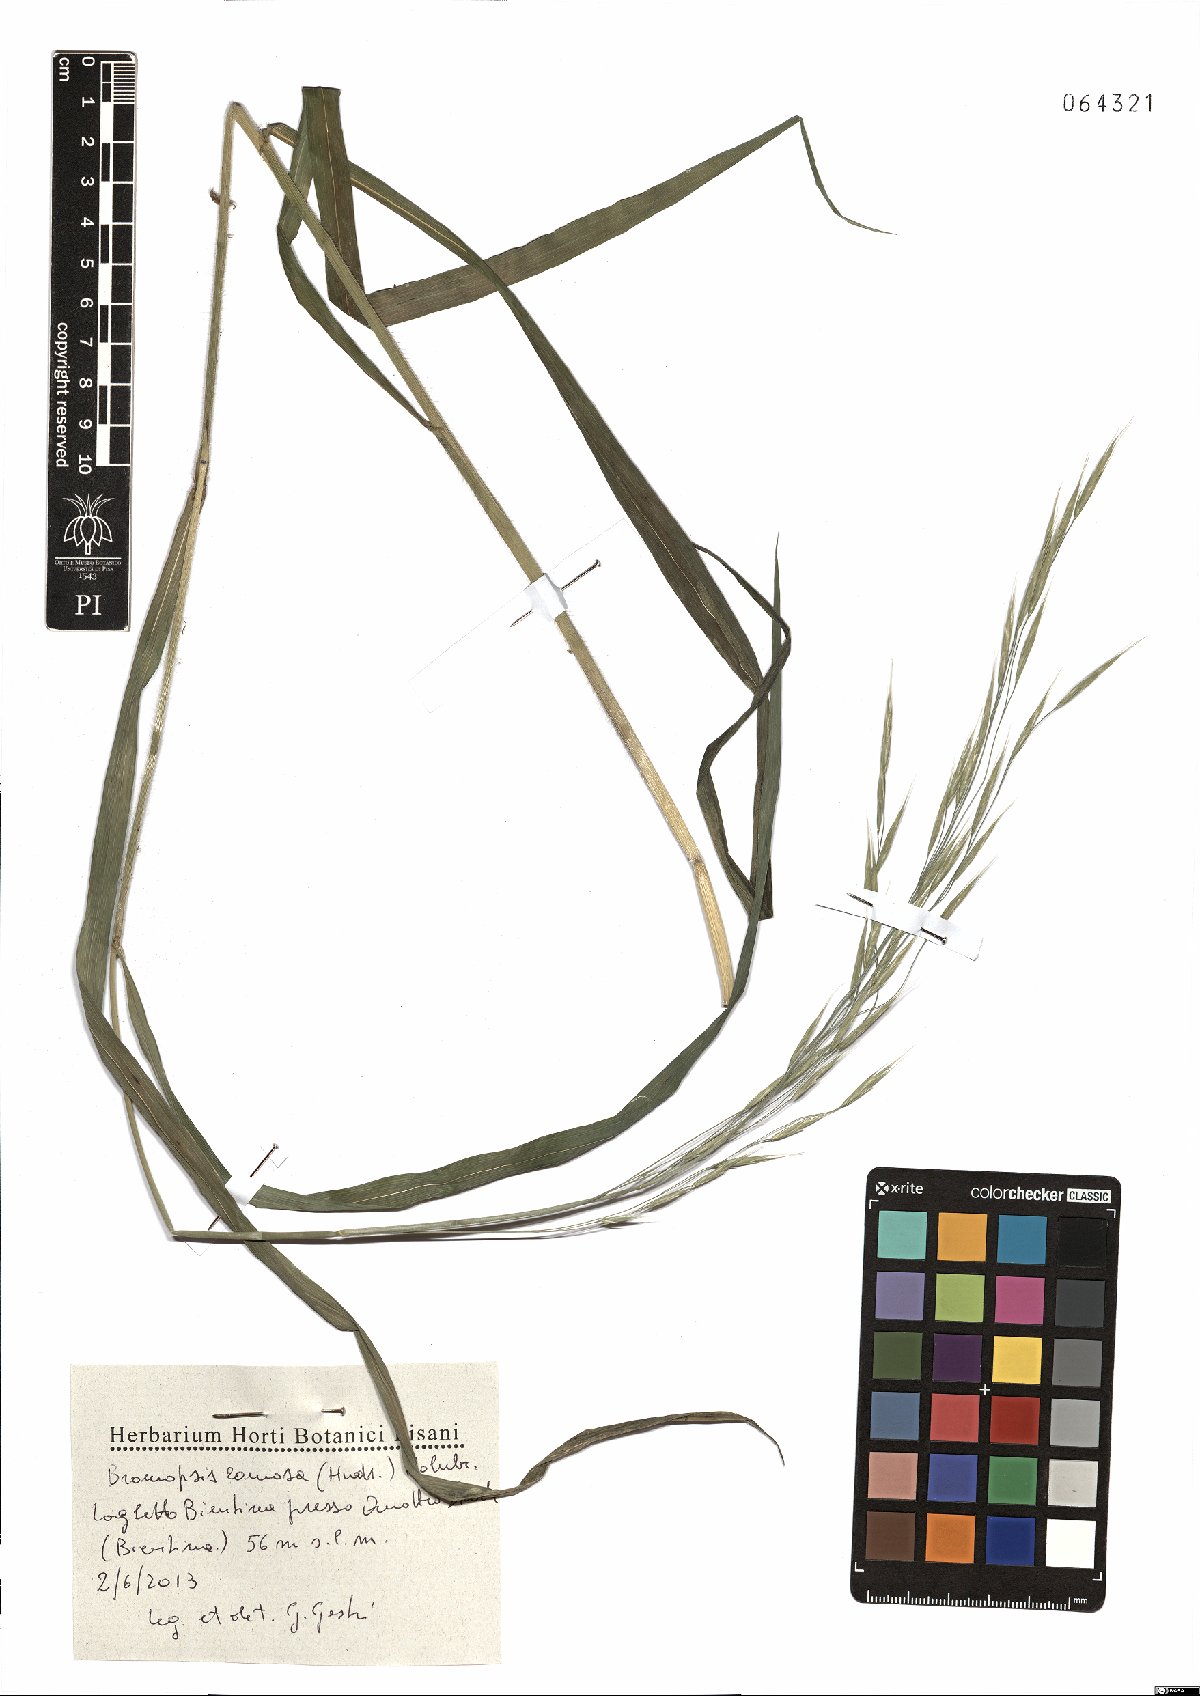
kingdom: Plantae
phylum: Tracheophyta
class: Liliopsida
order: Poales
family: Poaceae
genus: Bromus
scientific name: Bromus ramosus
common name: Hairy brome
